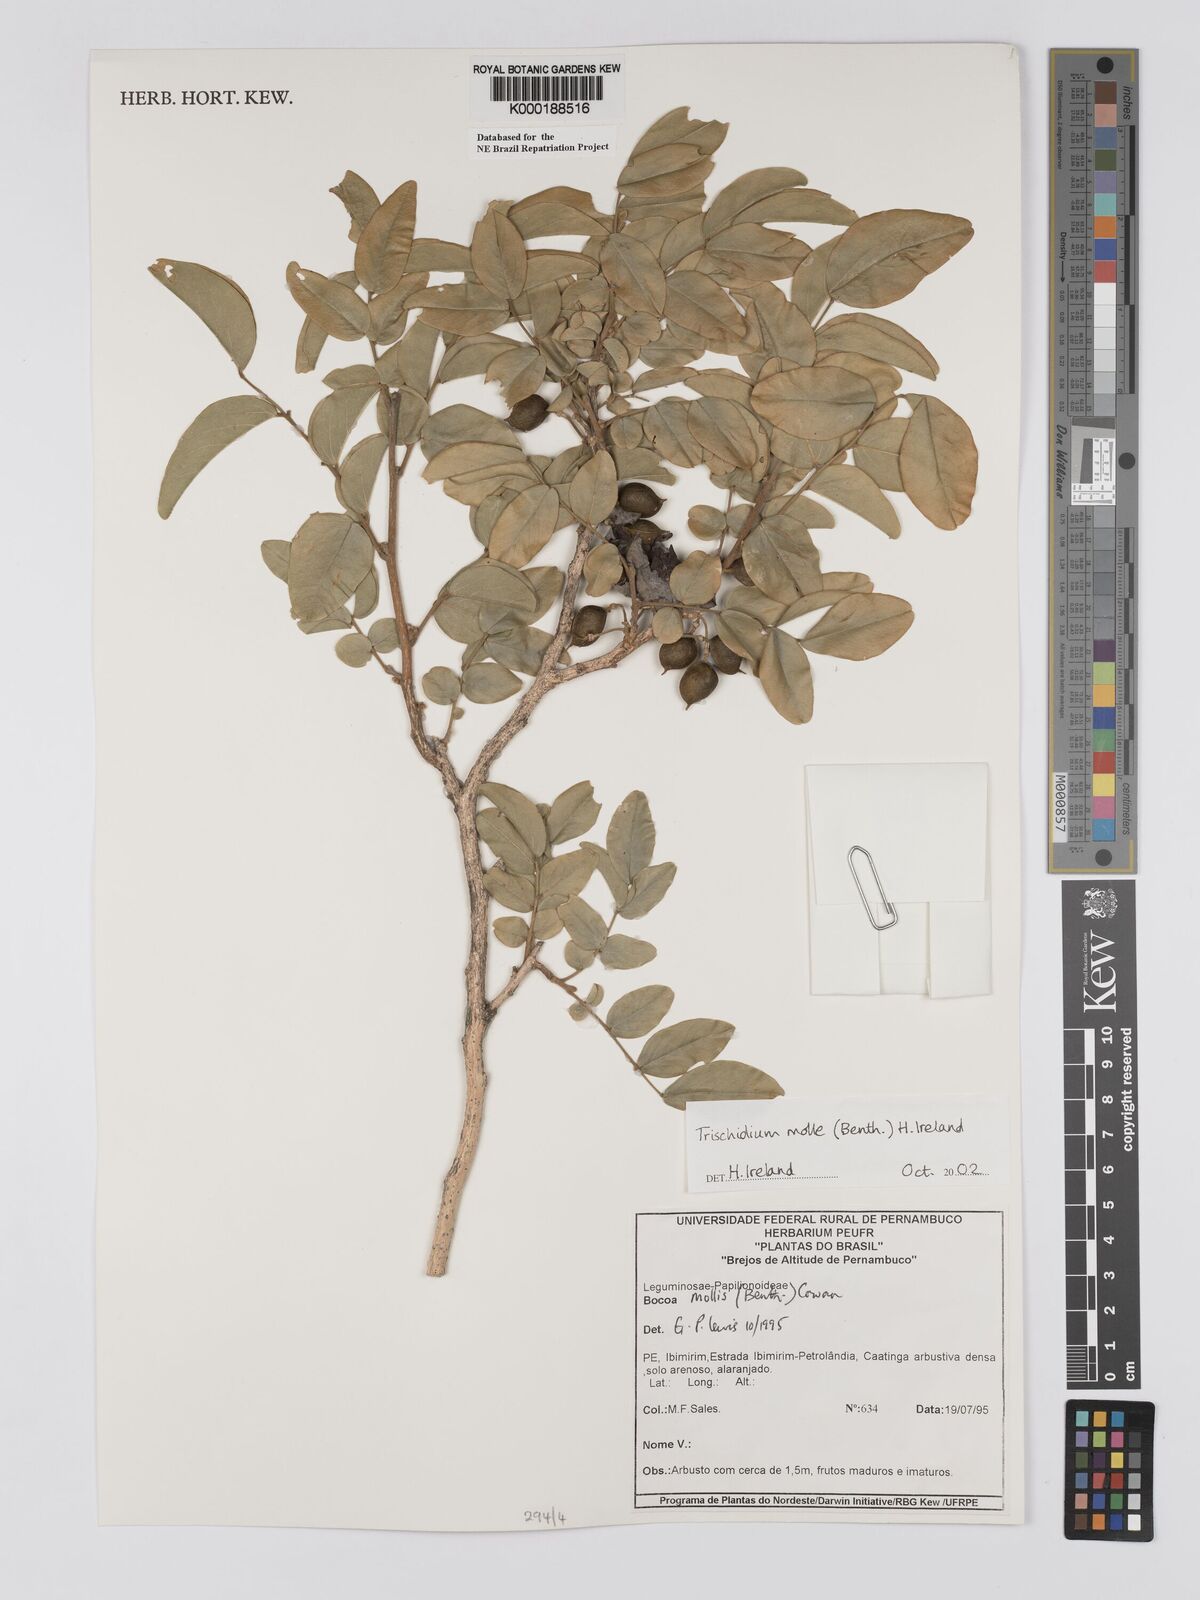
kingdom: Plantae
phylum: Tracheophyta
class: Magnoliopsida
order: Fabales
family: Fabaceae
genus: Trischidium
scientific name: Trischidium
